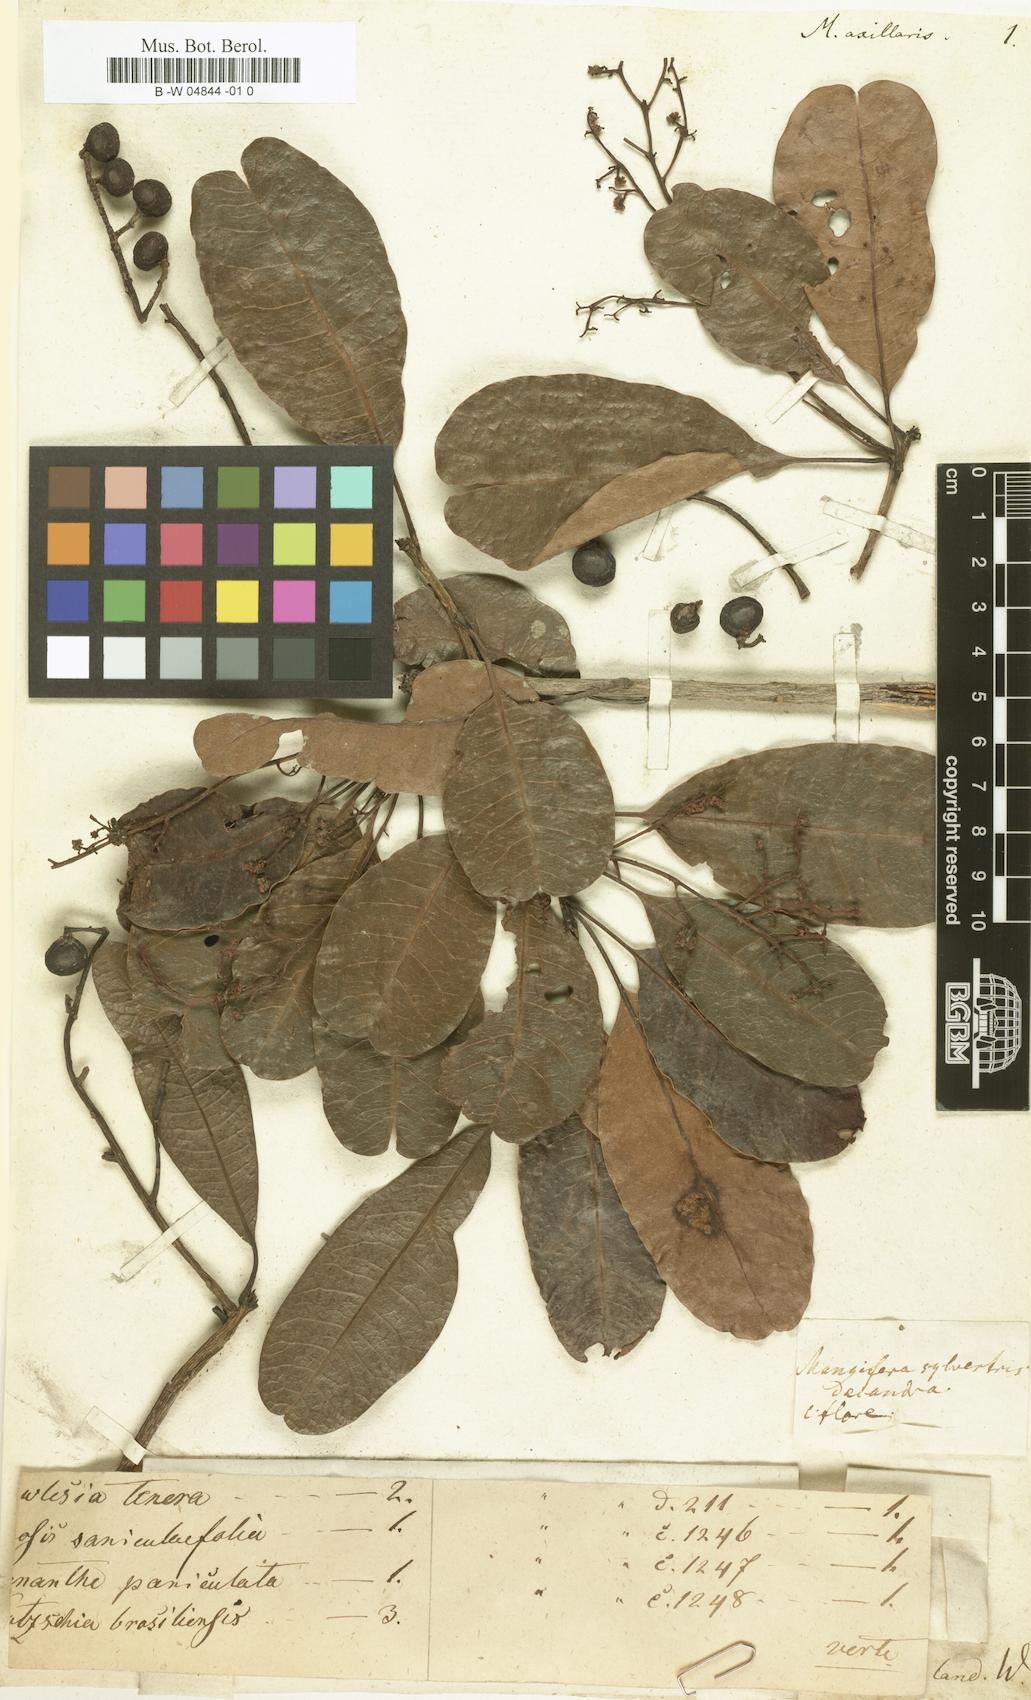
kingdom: Plantae
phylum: Tracheophyta
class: Magnoliopsida
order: Sapindales
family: Anacardiaceae
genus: Buchanania
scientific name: Buchanania axillaris
